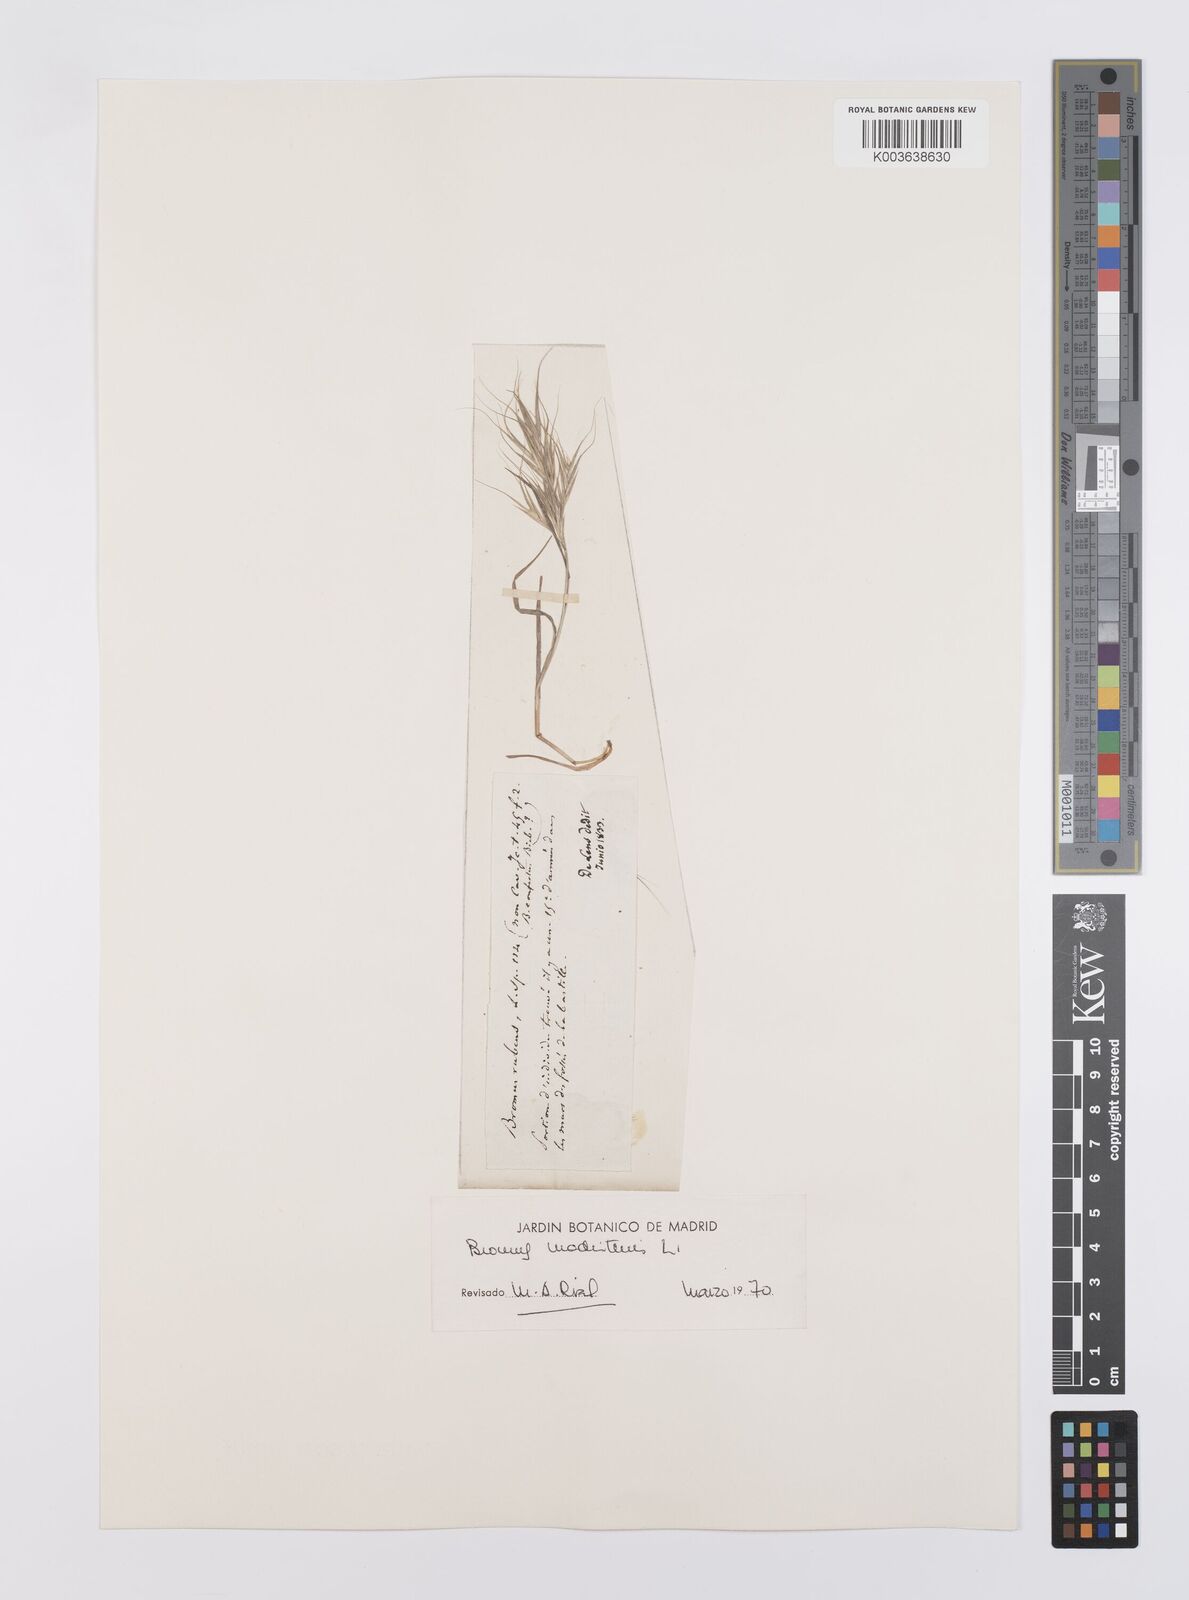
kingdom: Plantae
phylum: Tracheophyta
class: Liliopsida
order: Poales
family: Poaceae
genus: Bromus
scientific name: Bromus madritensis
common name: Compact brome
